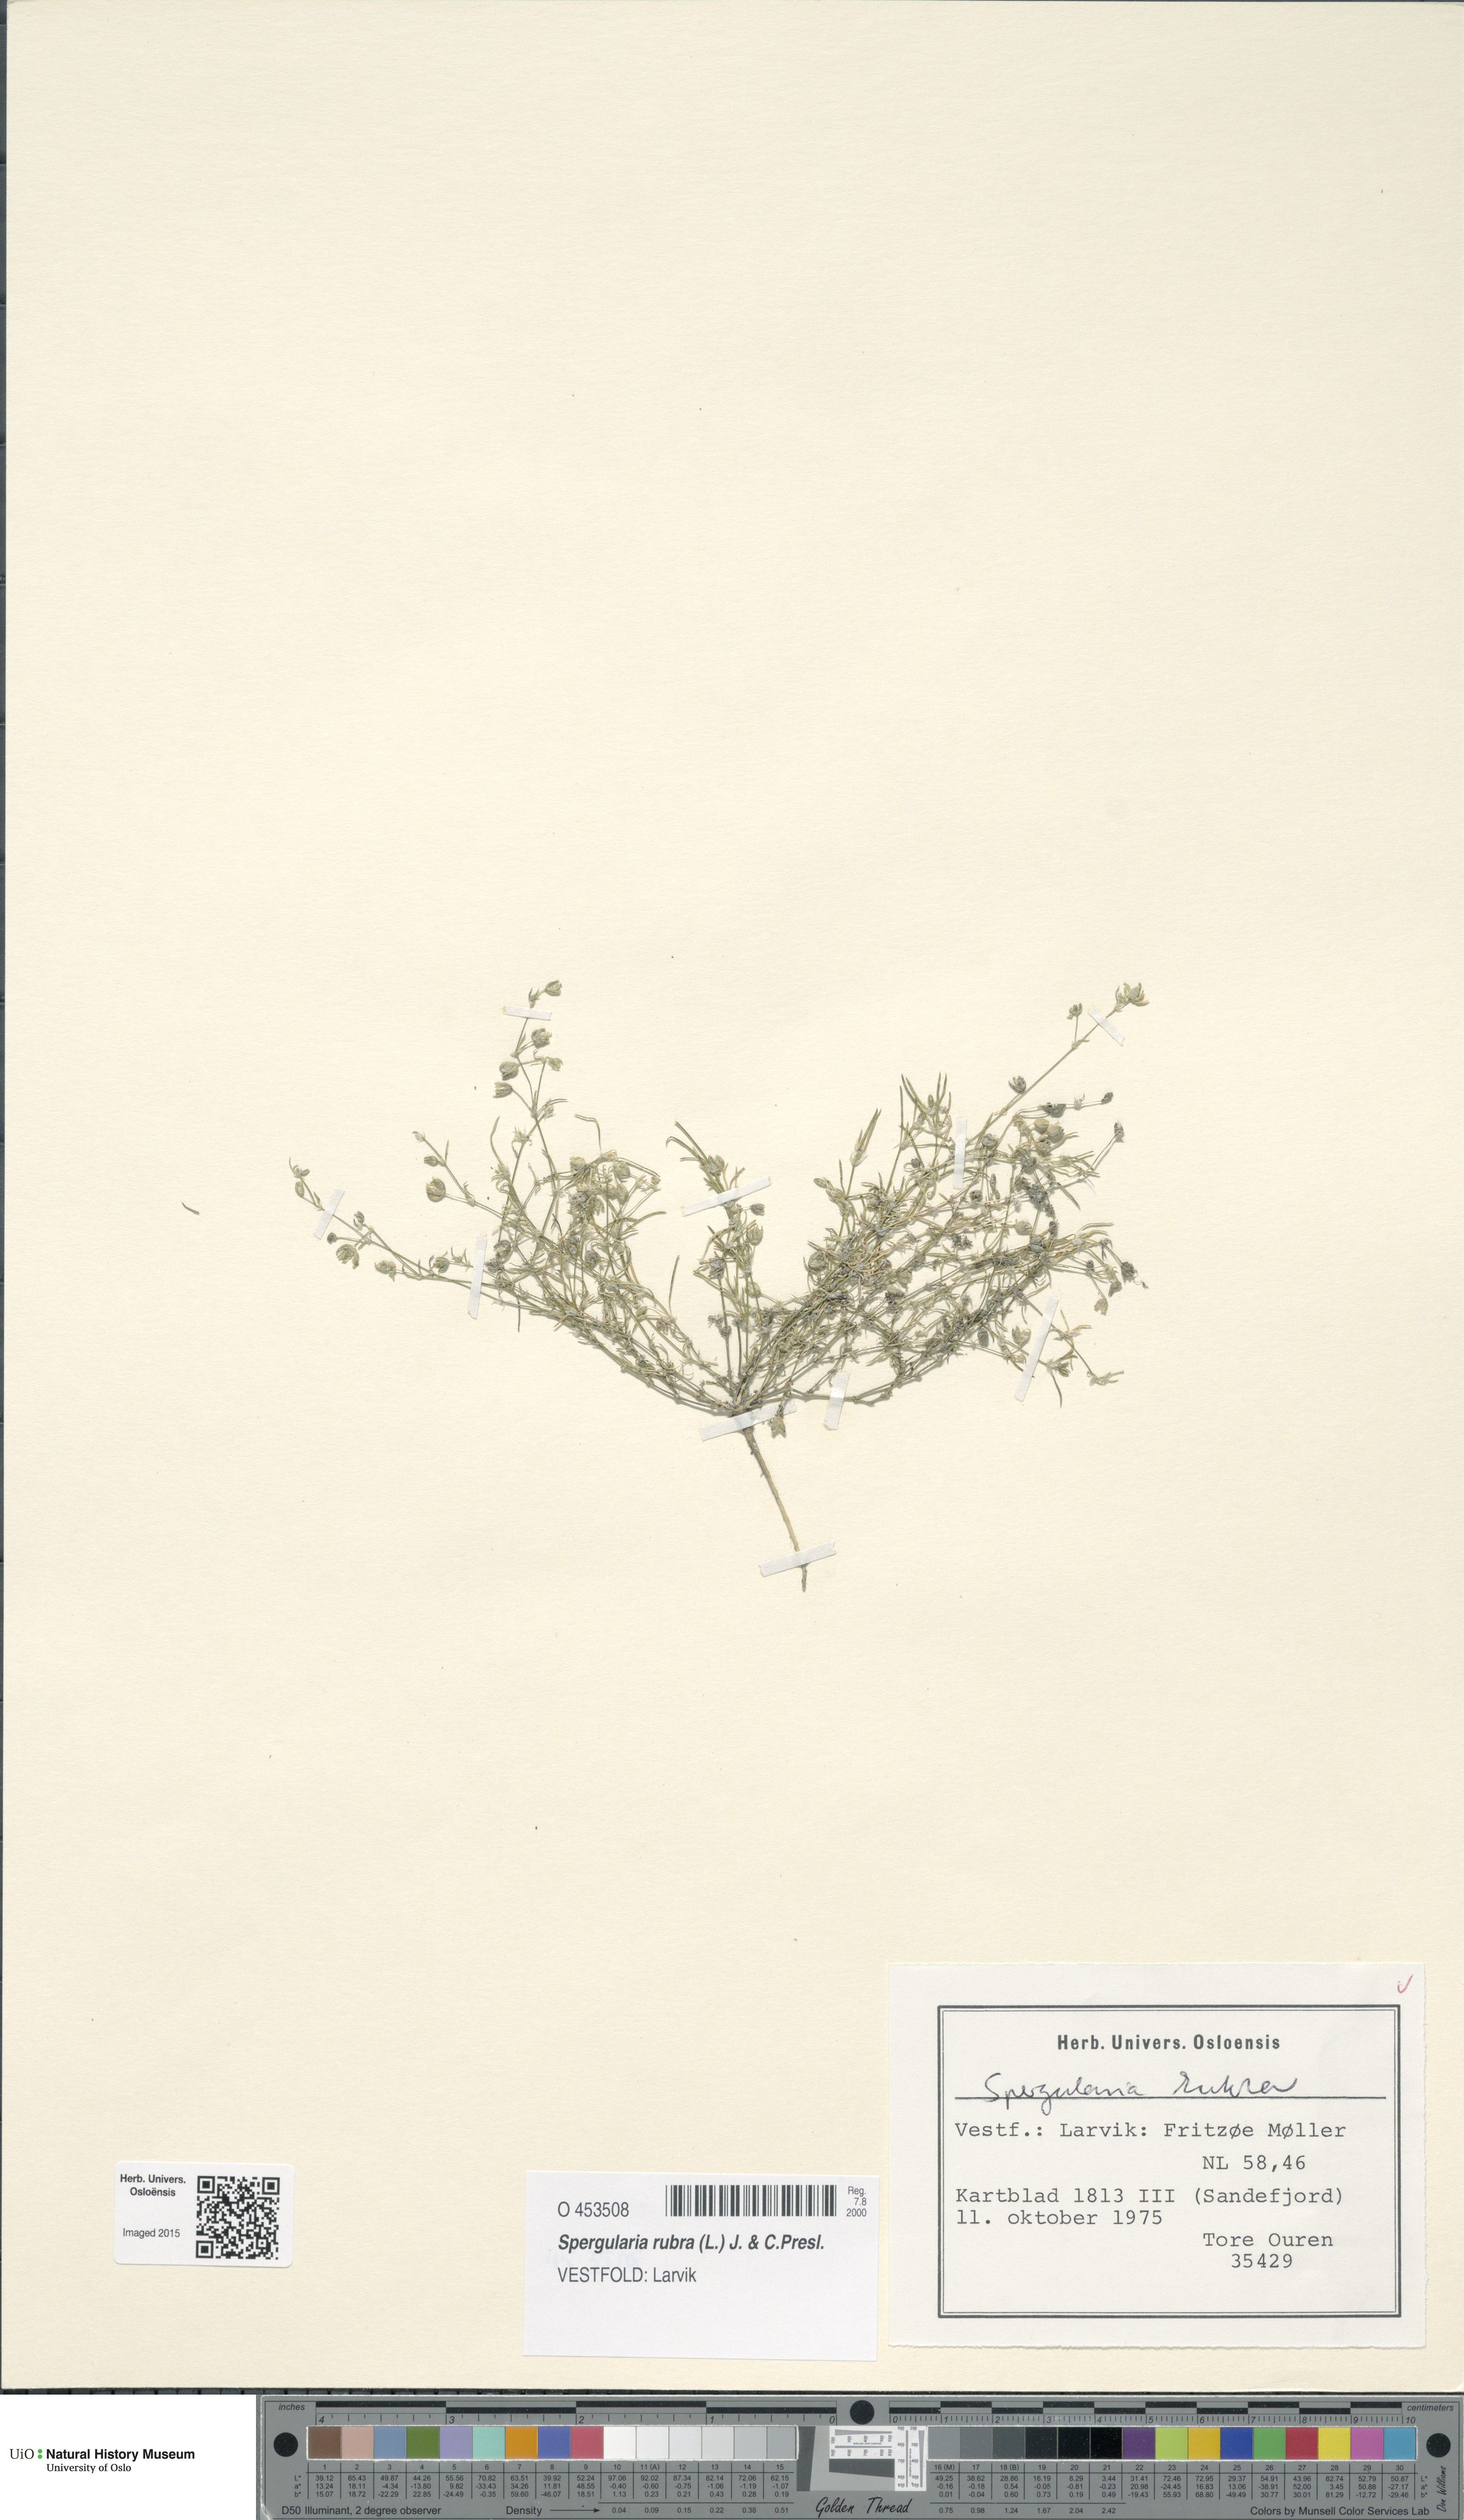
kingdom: Plantae
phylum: Tracheophyta
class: Magnoliopsida
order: Caryophyllales
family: Caryophyllaceae
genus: Spergularia
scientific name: Spergularia rubra
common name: Red sand-spurrey
